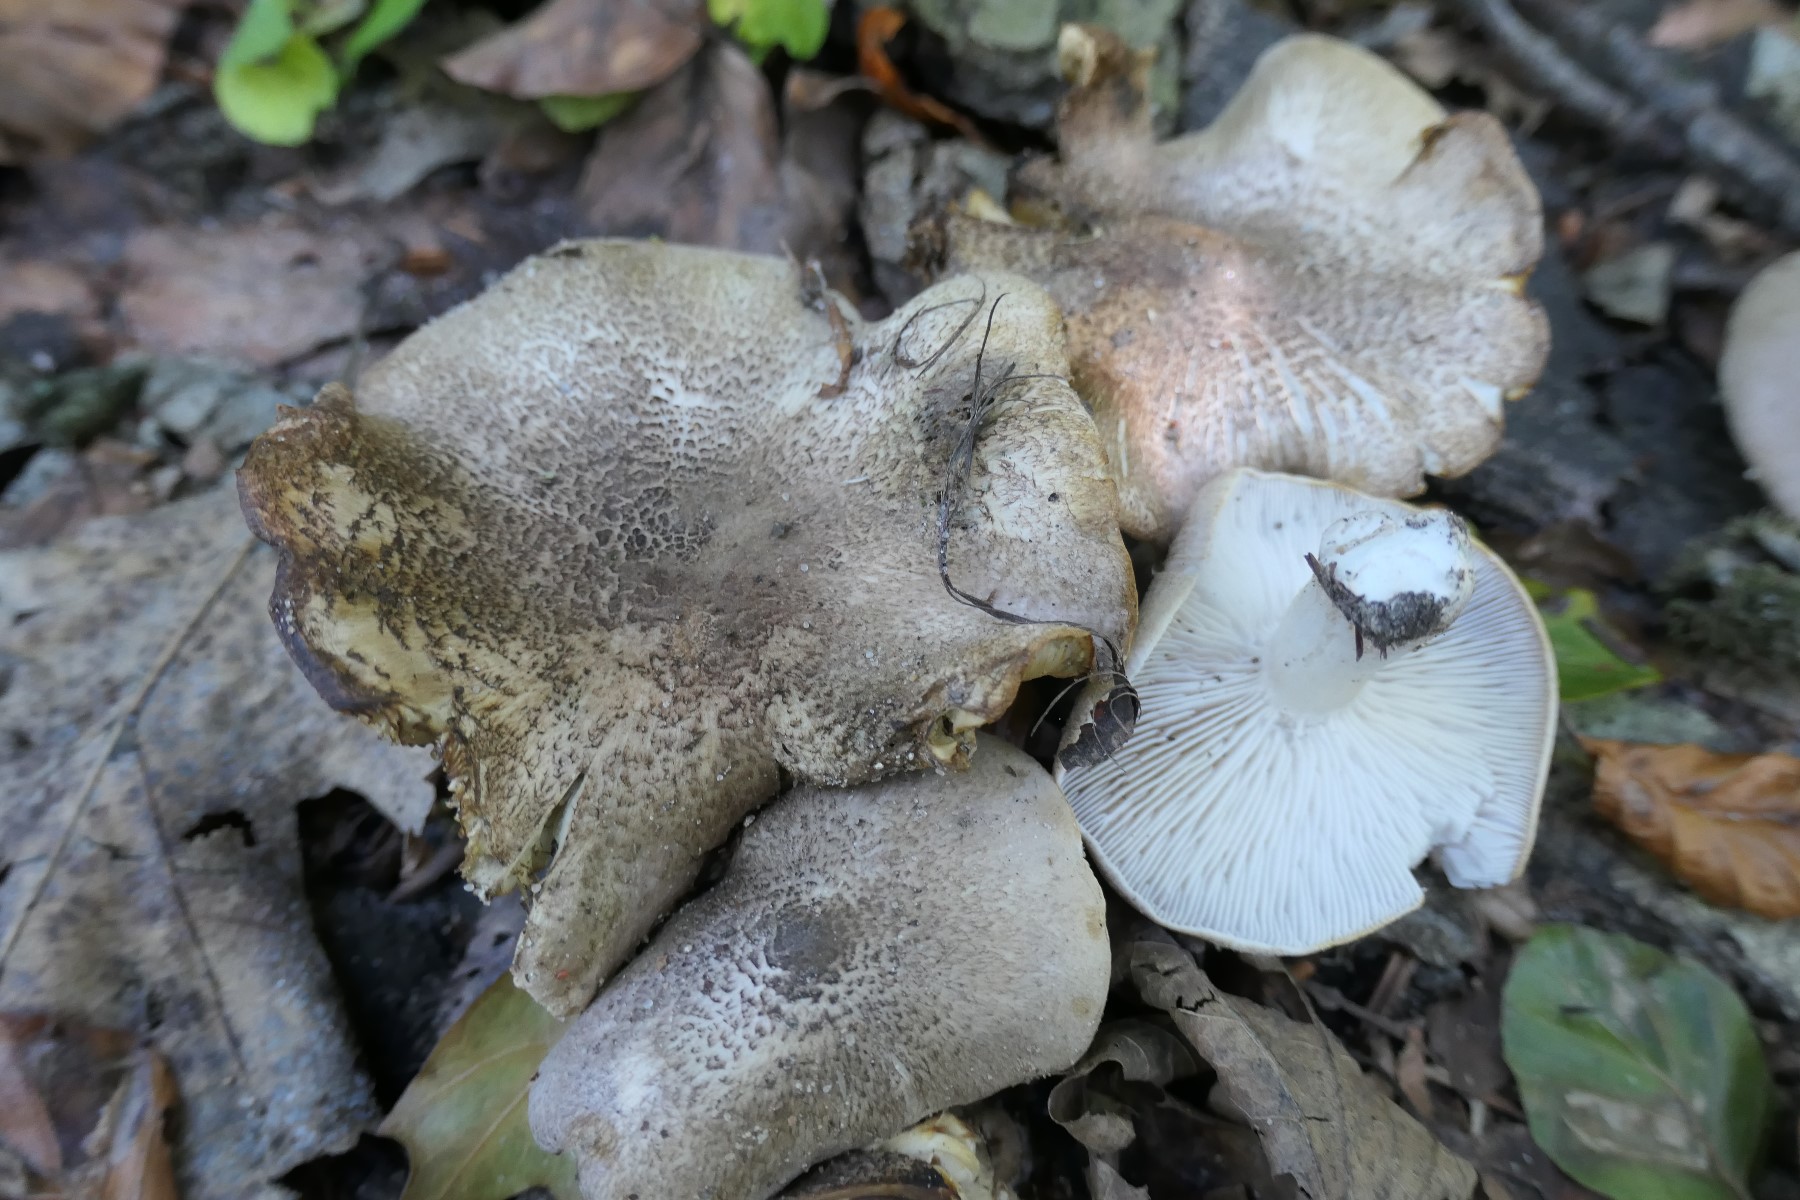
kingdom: Fungi
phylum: Basidiomycota
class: Agaricomycetes
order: Agaricales
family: Tricholomataceae
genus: Tricholoma
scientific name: Tricholoma scalpturatum
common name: gulplettet ridderhat
